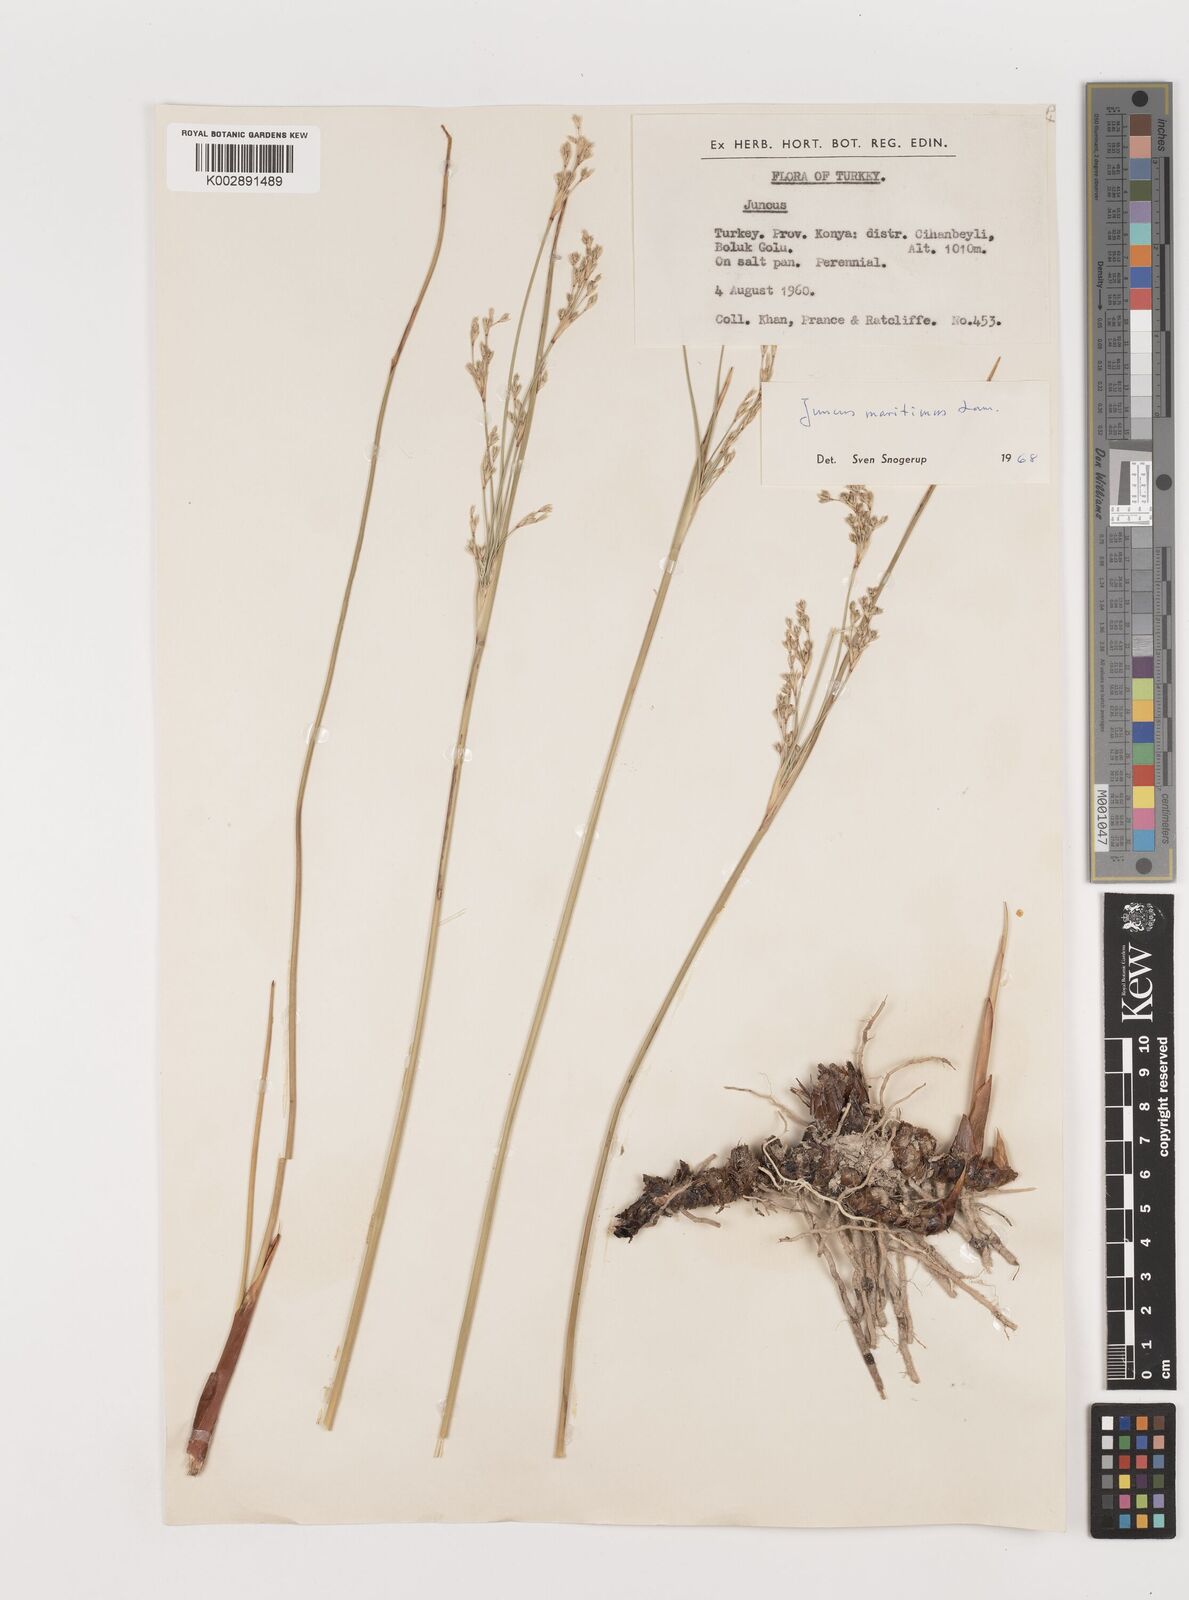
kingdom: Plantae
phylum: Tracheophyta
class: Liliopsida
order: Poales
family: Juncaceae
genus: Juncus
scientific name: Juncus maritimus
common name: Sea rush
